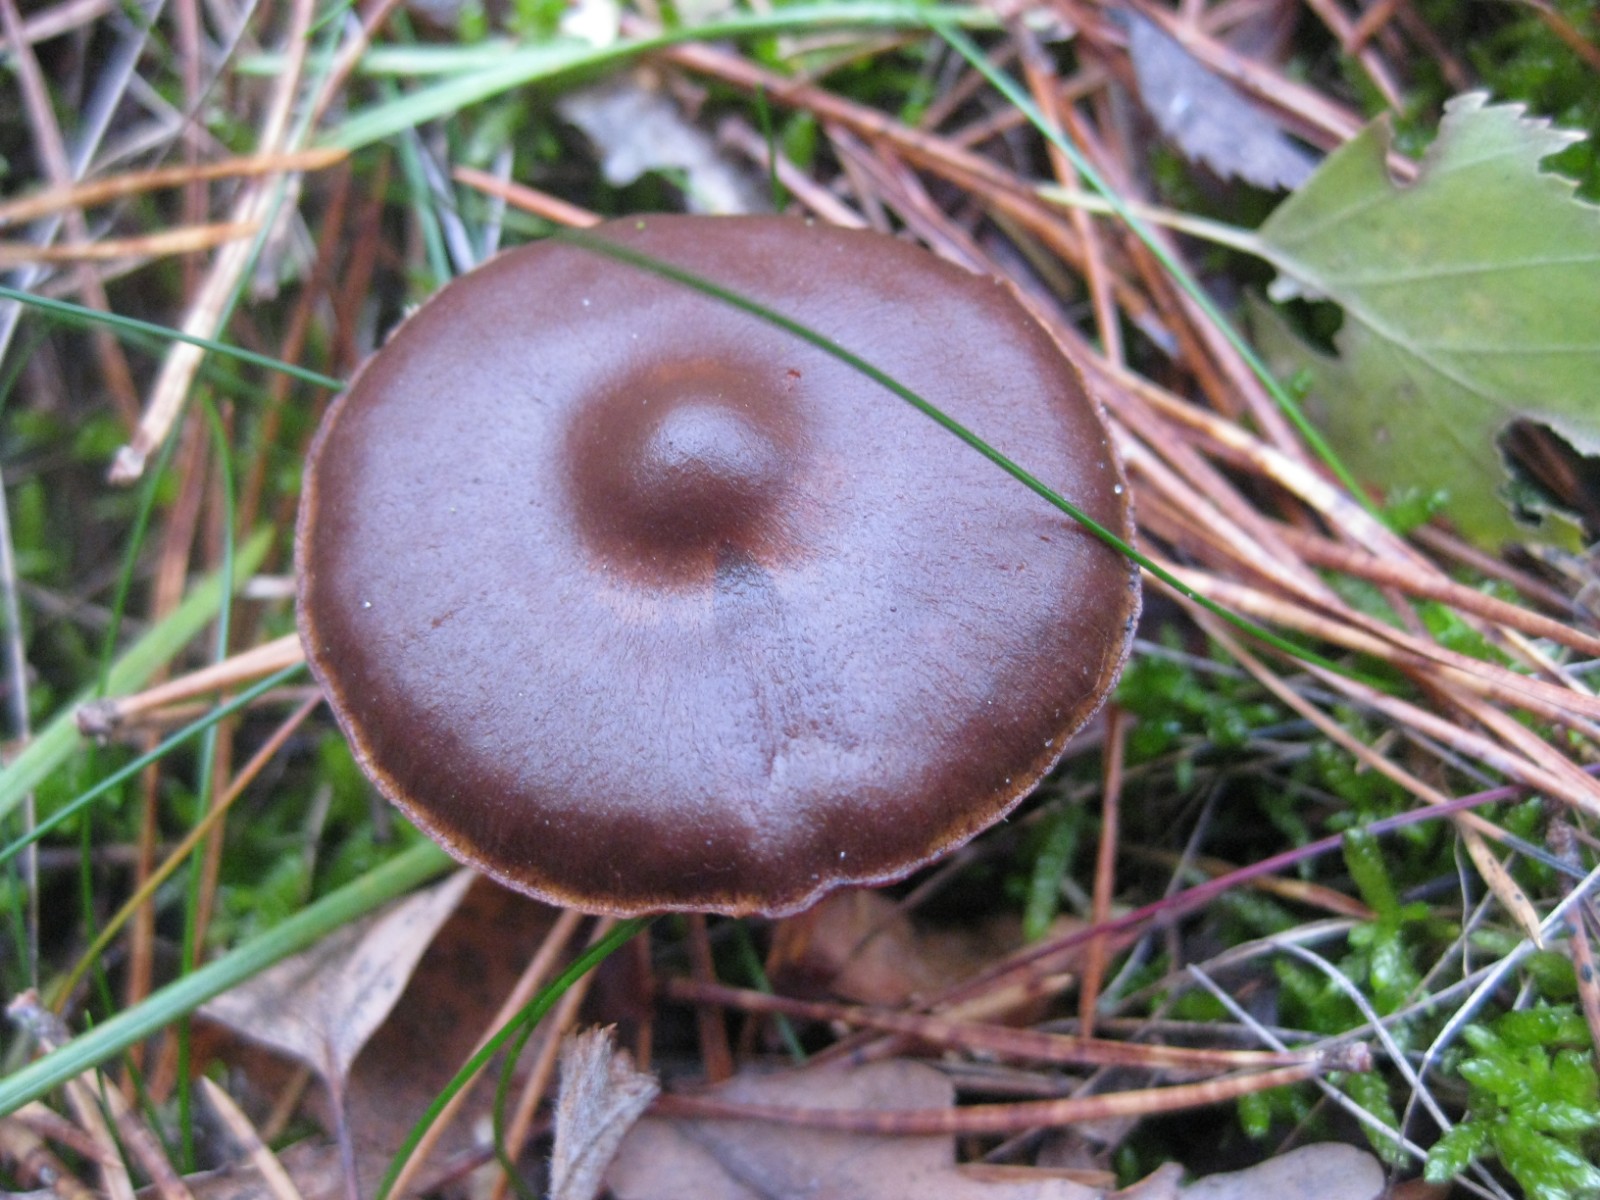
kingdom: Fungi
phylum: Basidiomycota
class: Agaricomycetes
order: Agaricales
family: Cortinariaceae
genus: Cortinarius
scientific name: Cortinarius
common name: cinnoberbladet slørhat
